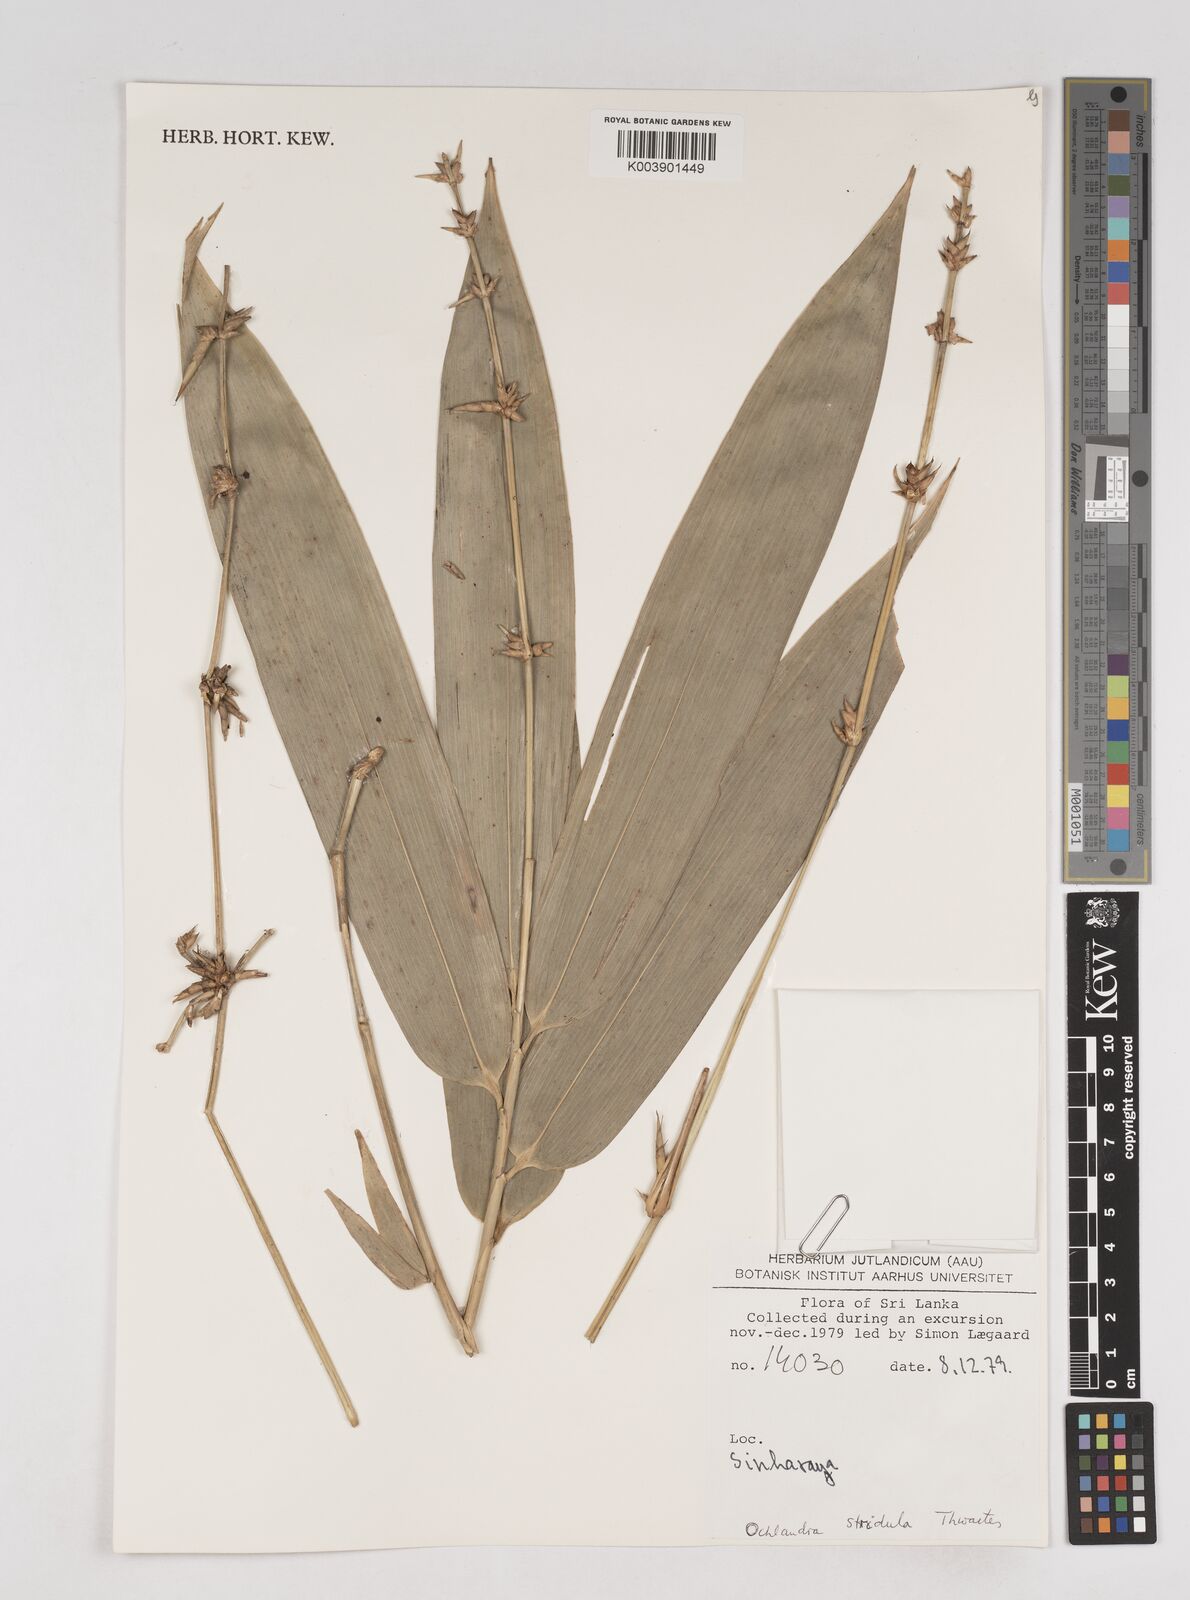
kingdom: Plantae
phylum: Tracheophyta
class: Liliopsida
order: Poales
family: Poaceae
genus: Ochlandra
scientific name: Ochlandra stridula
